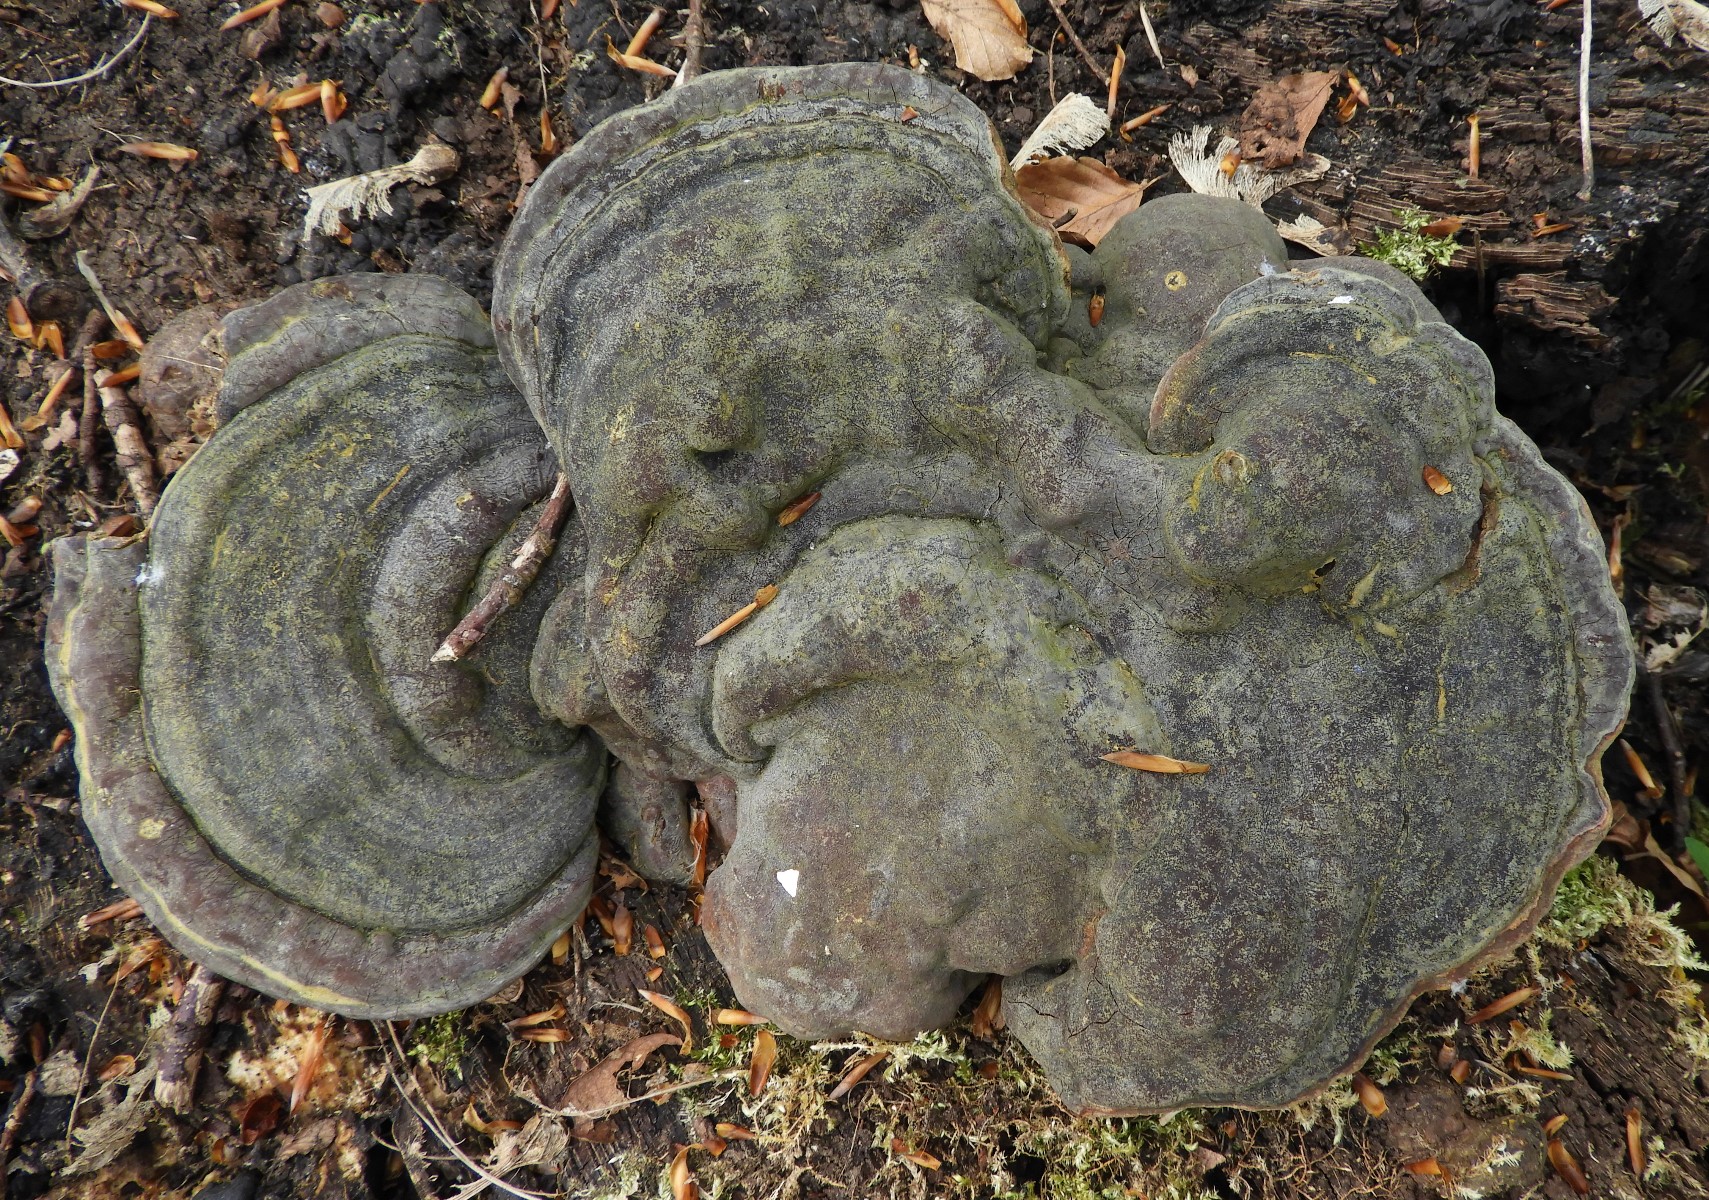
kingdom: Fungi
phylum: Basidiomycota
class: Agaricomycetes
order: Polyporales
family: Polyporaceae
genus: Ganoderma
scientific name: Ganoderma pfeifferi
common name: kobberrød lakporesvamp
